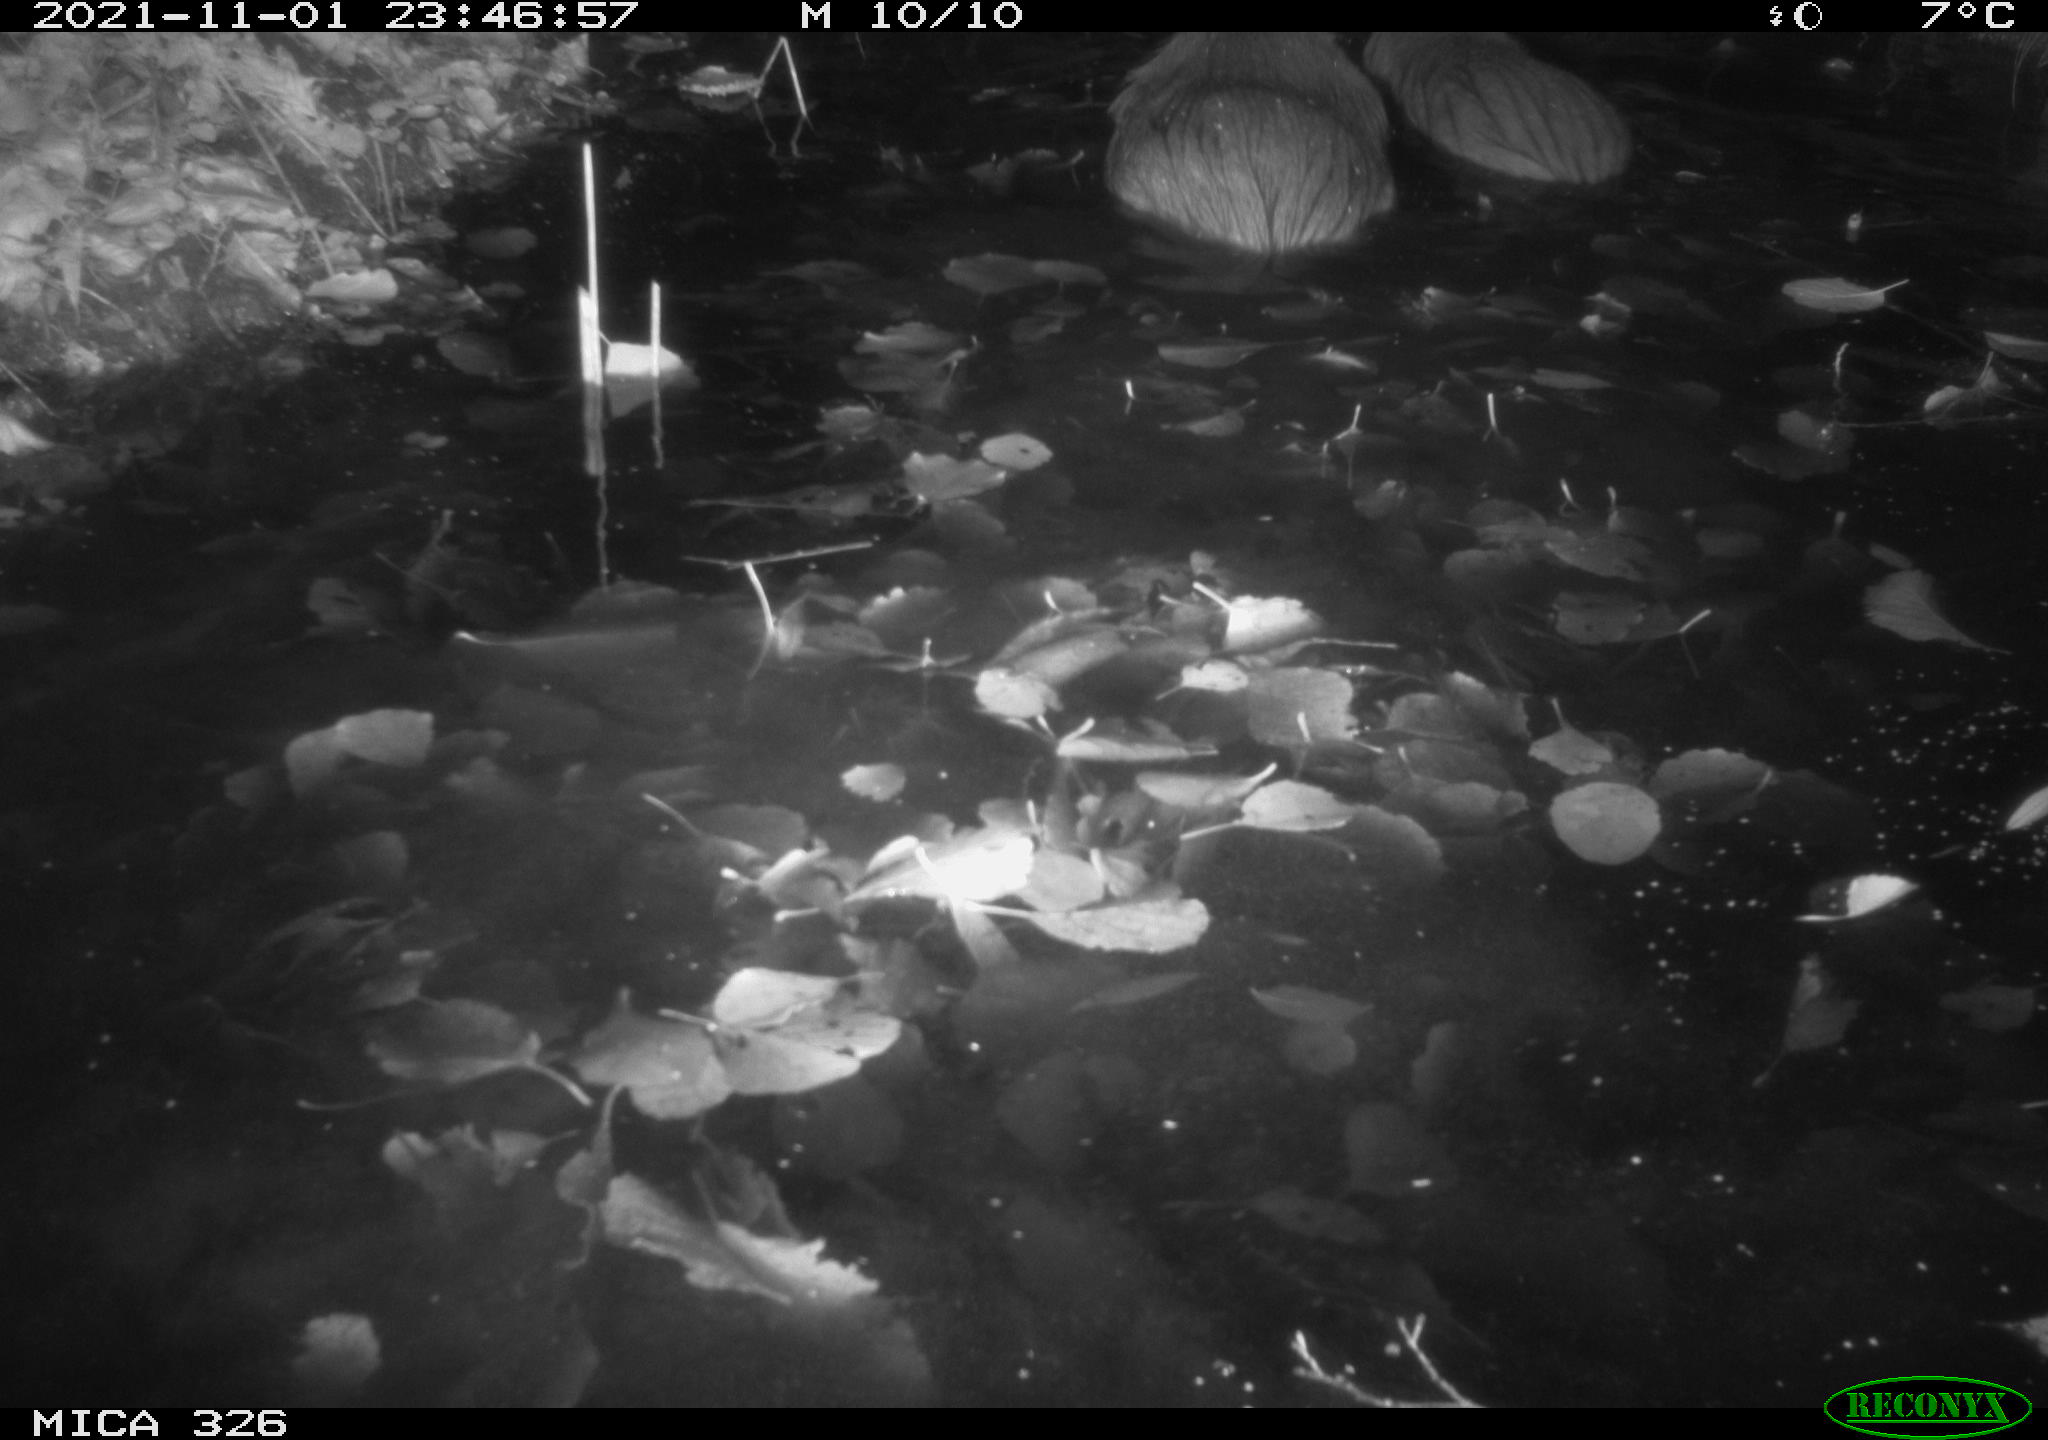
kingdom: Animalia
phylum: Chordata
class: Mammalia
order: Rodentia
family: Myocastoridae
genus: Myocastor
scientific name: Myocastor coypus
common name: Coypu
